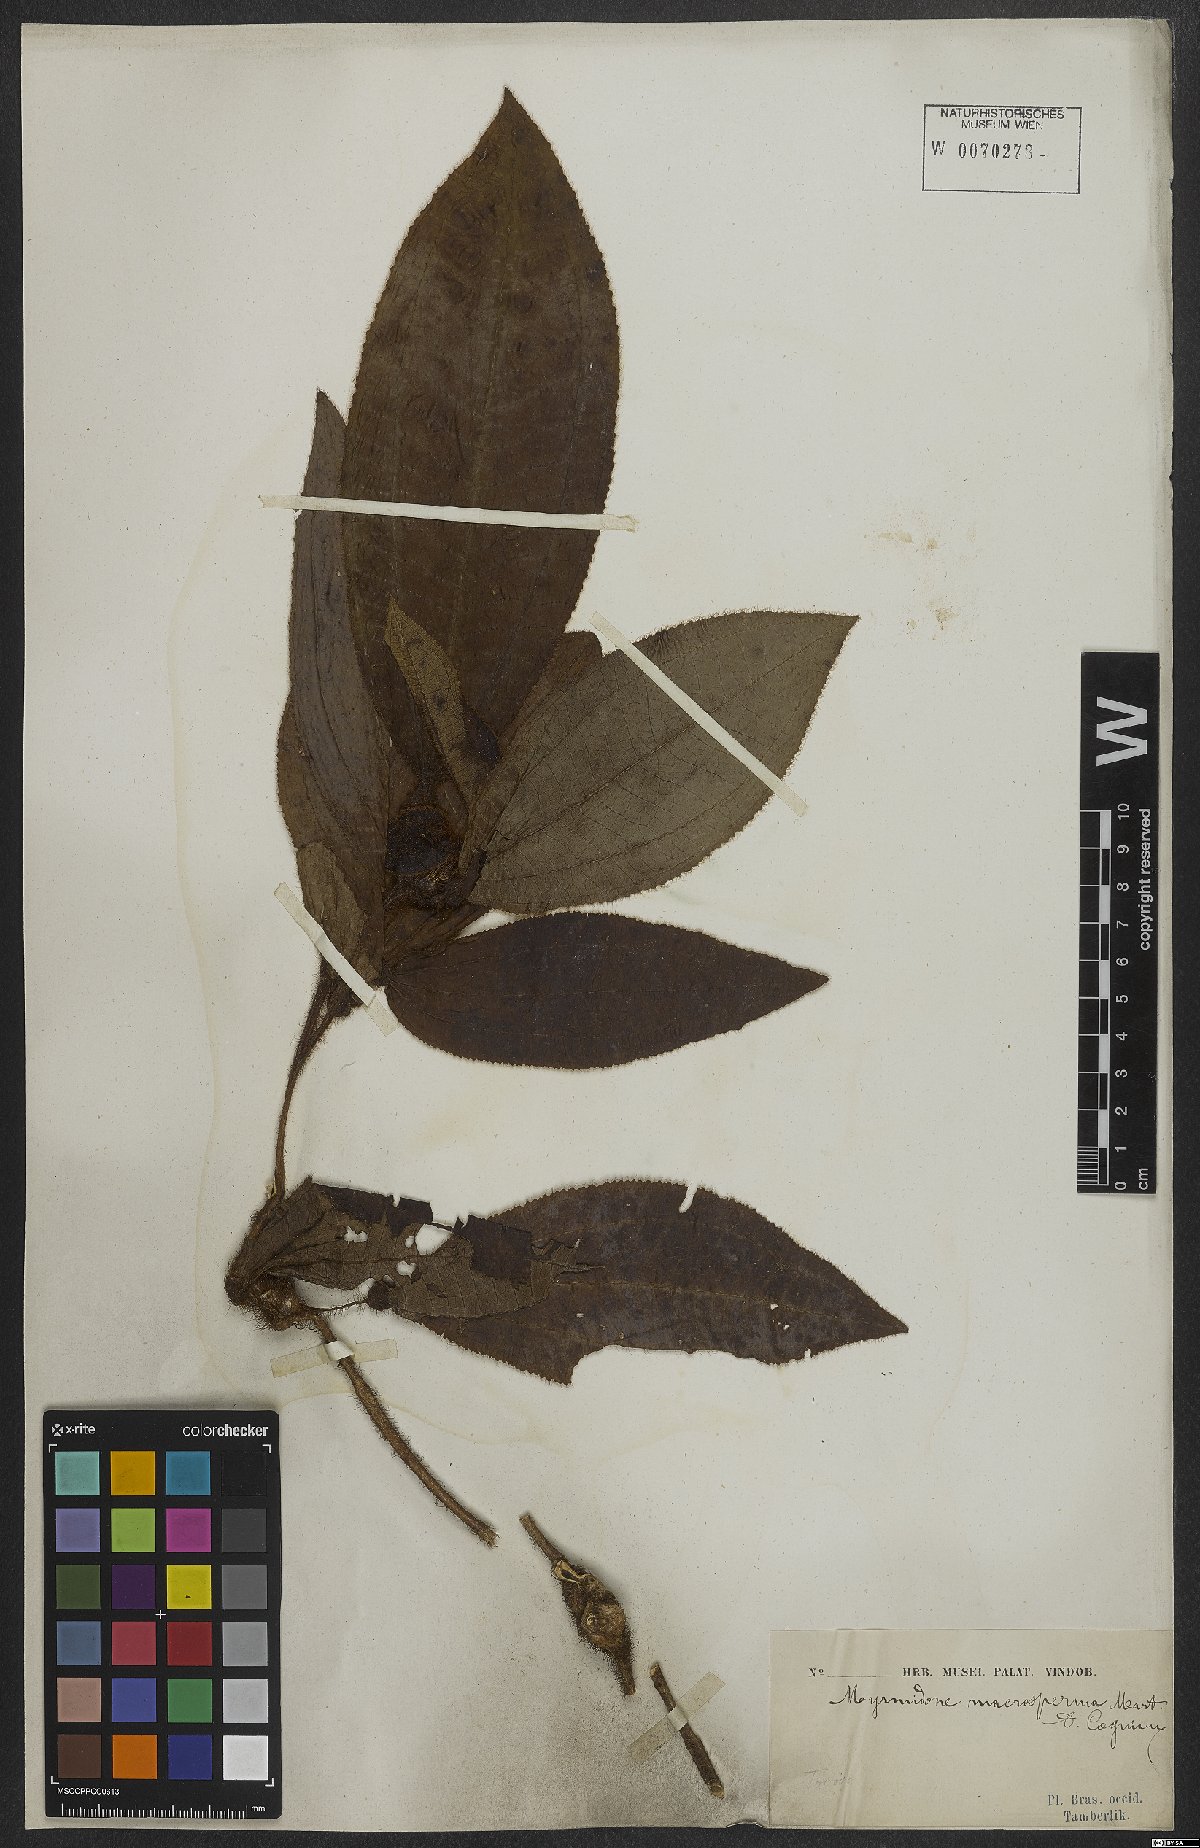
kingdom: Plantae
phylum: Tracheophyta
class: Magnoliopsida
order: Myrtales
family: Melastomataceae
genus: Miconia
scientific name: Miconia macrosperma
